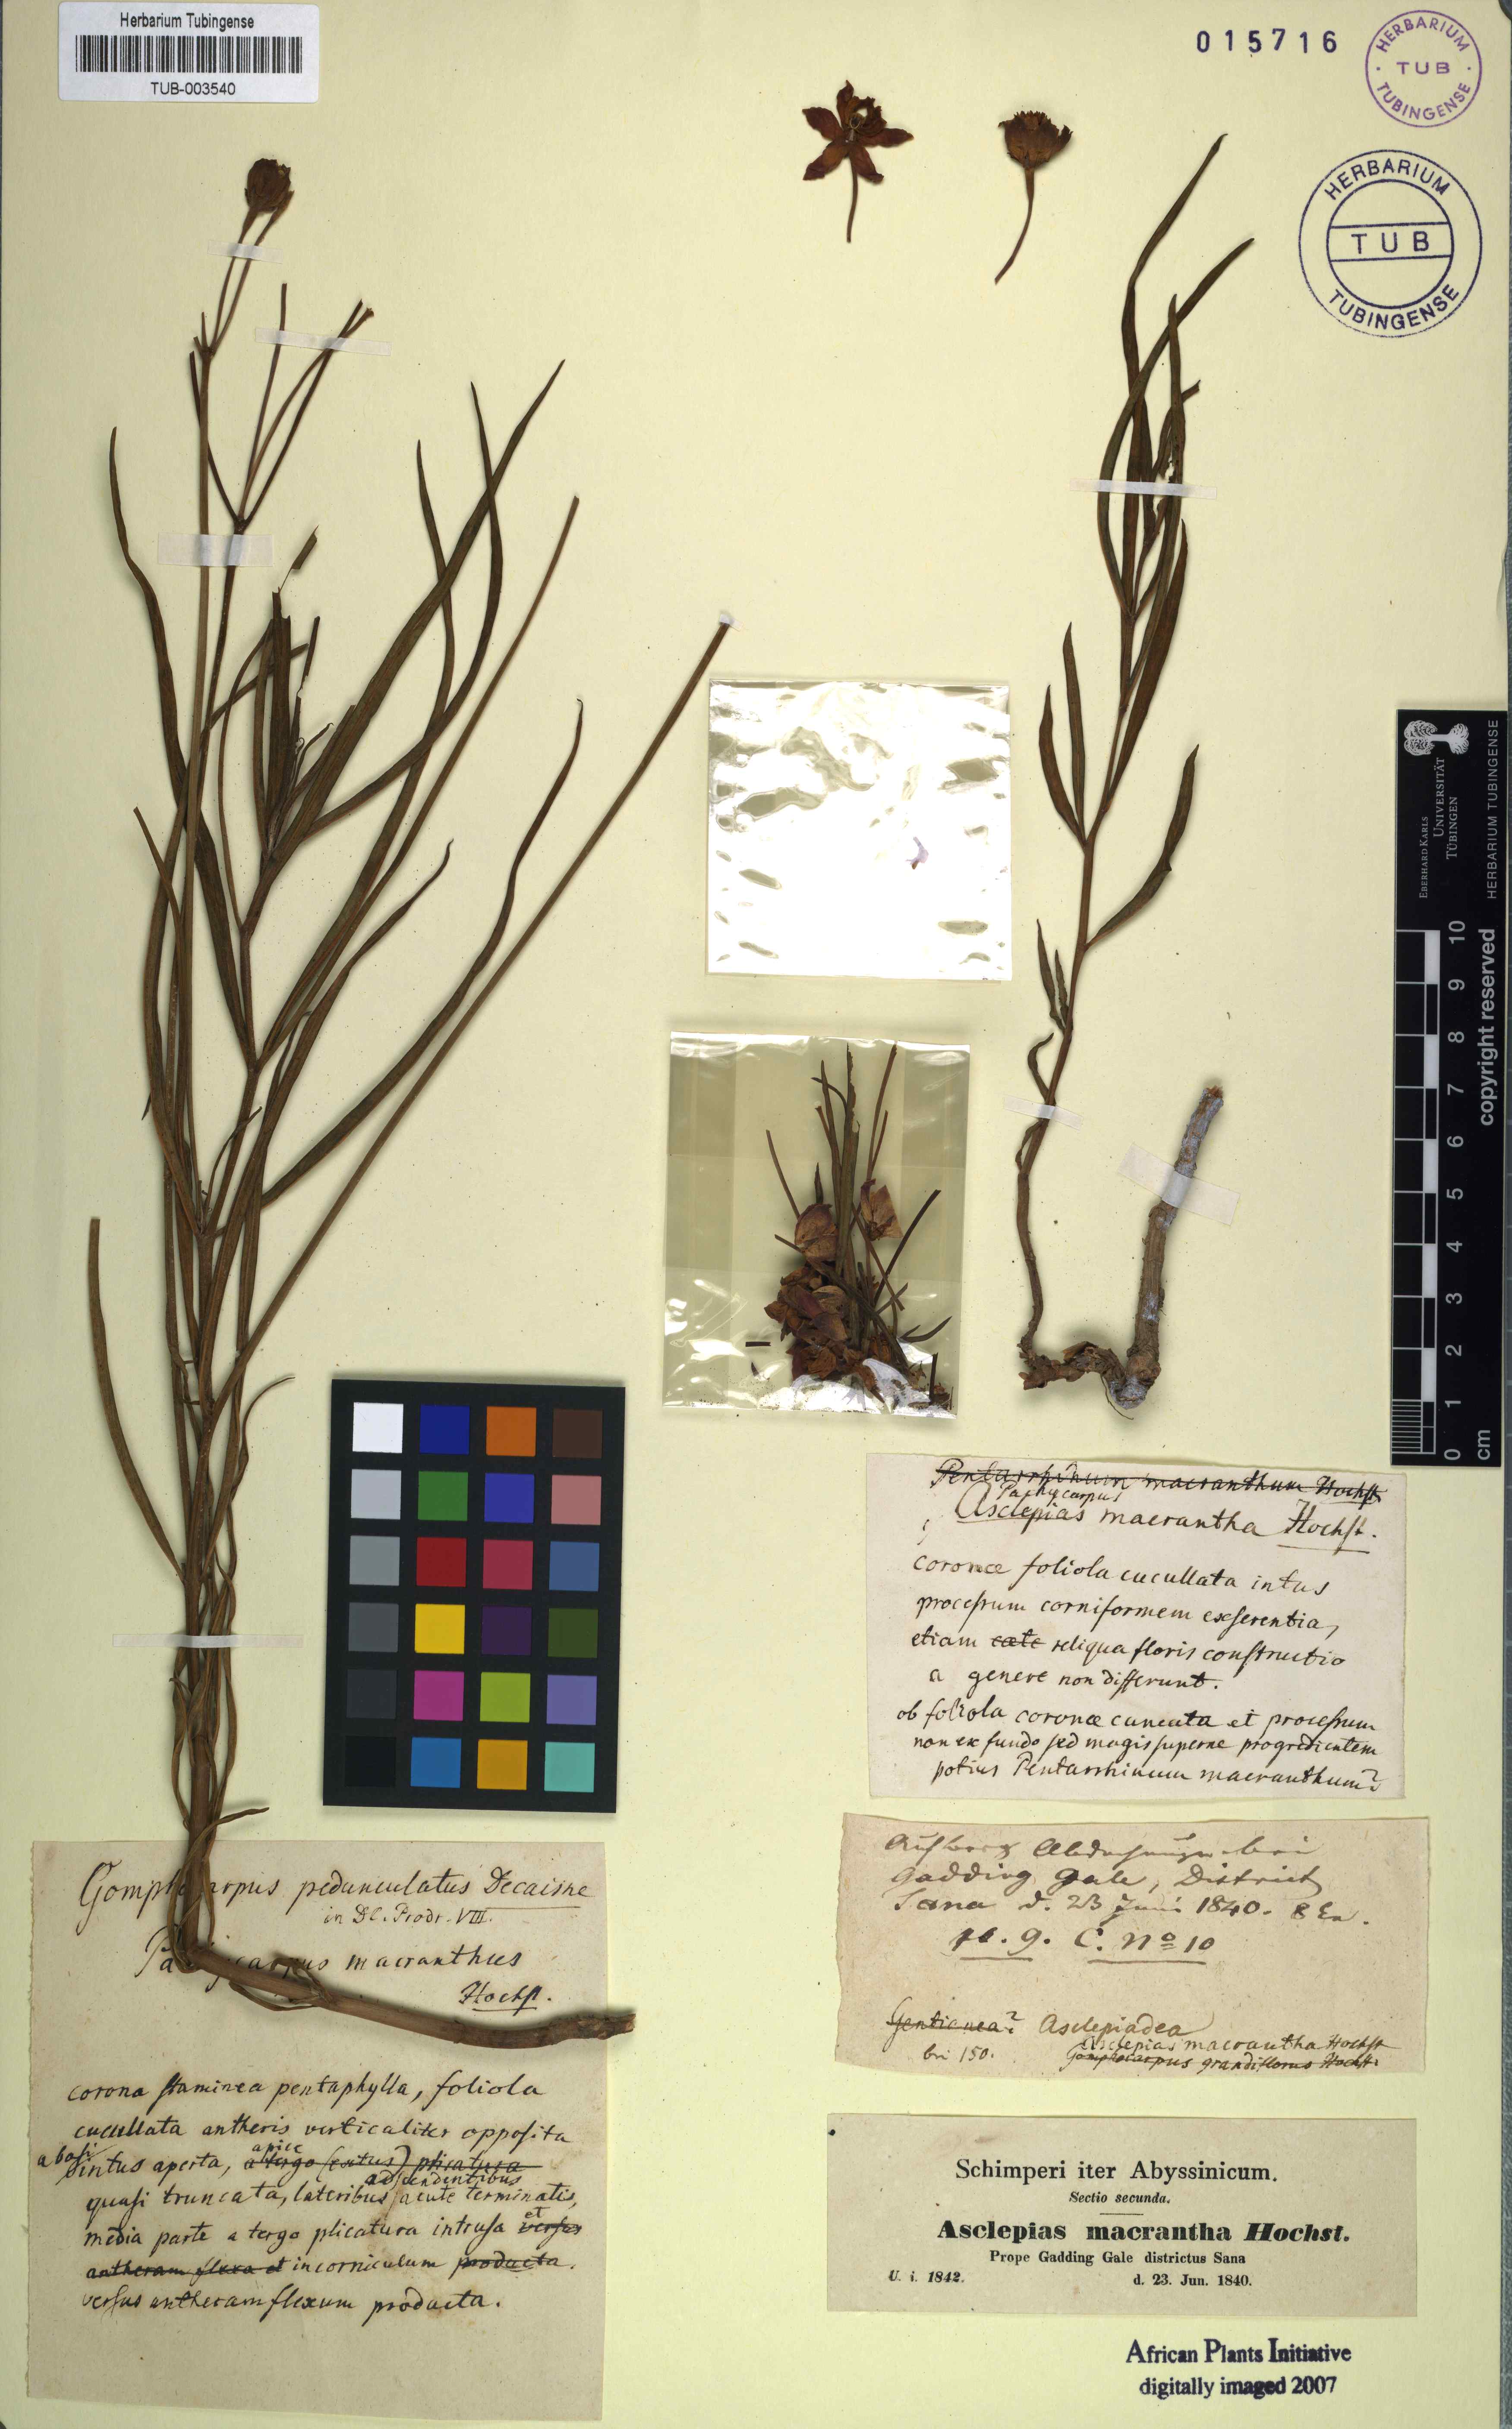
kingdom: Plantae
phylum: Tracheophyta
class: Magnoliopsida
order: Gentianales
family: Apocynaceae
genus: Stathmostelma
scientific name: Stathmostelma pedunculatum
